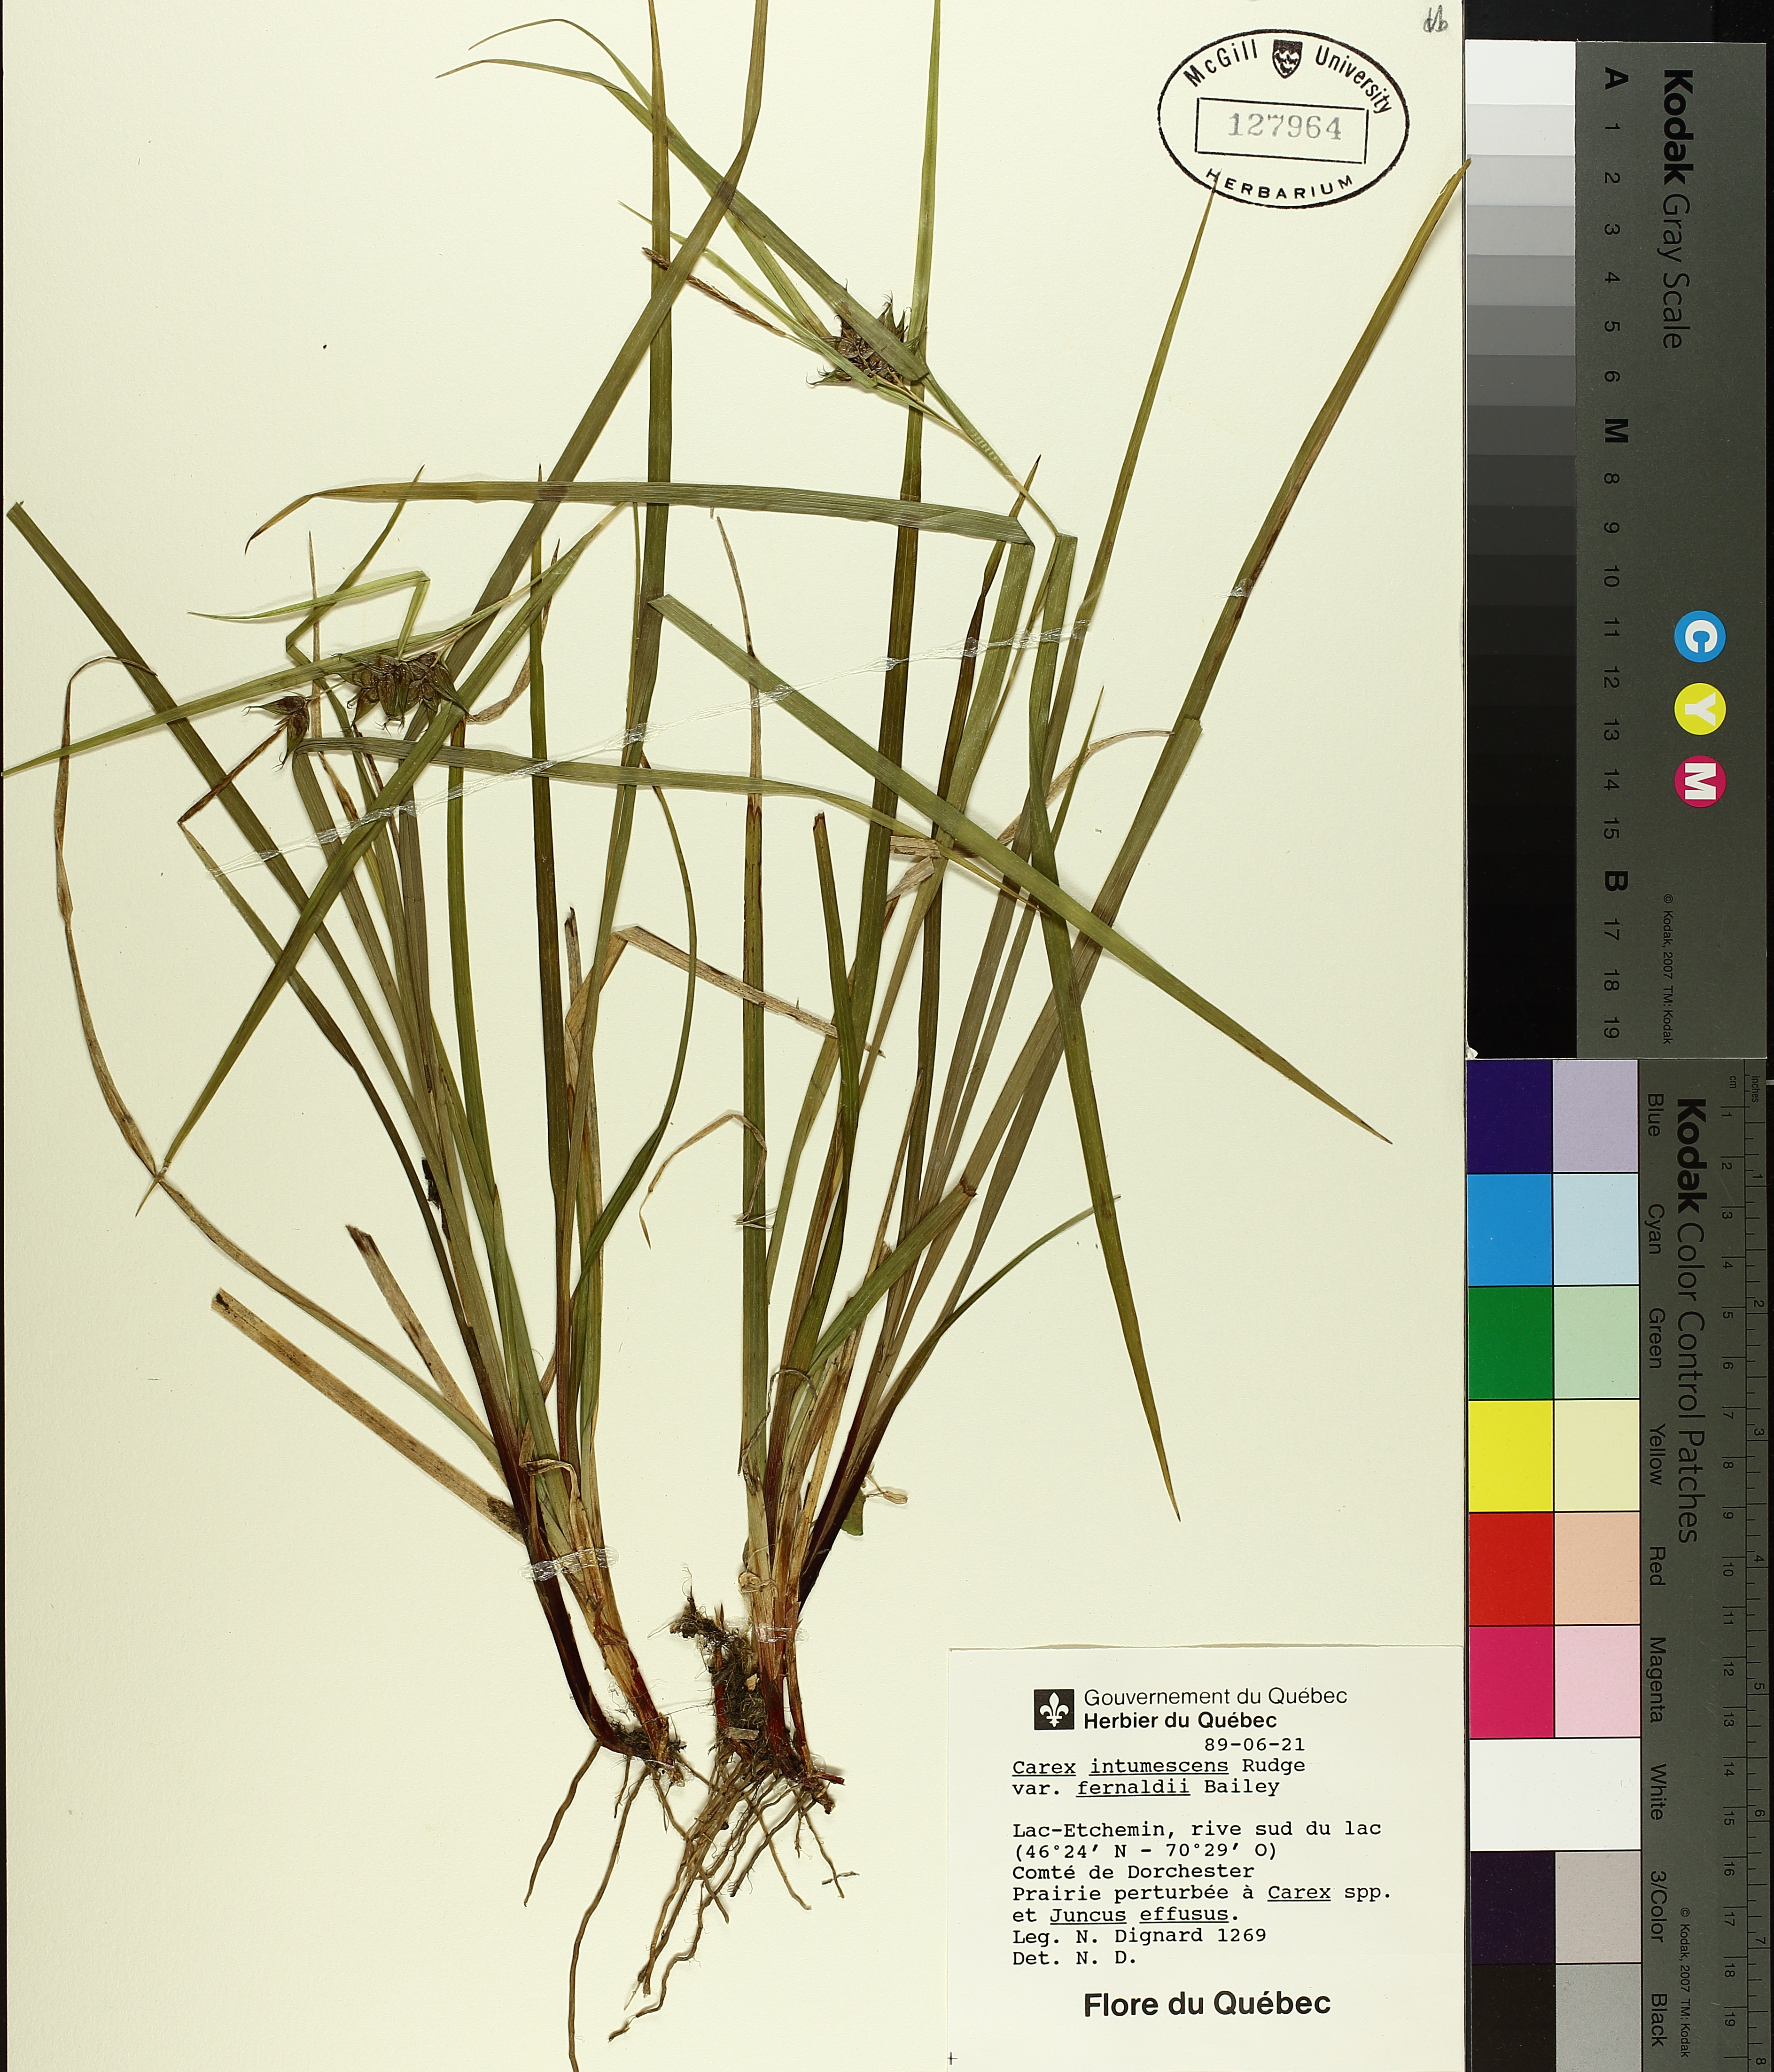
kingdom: Plantae
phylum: Tracheophyta
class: Liliopsida
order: Poales
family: Cyperaceae
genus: Carex
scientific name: Carex intumescens
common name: Greater bladder sedge
